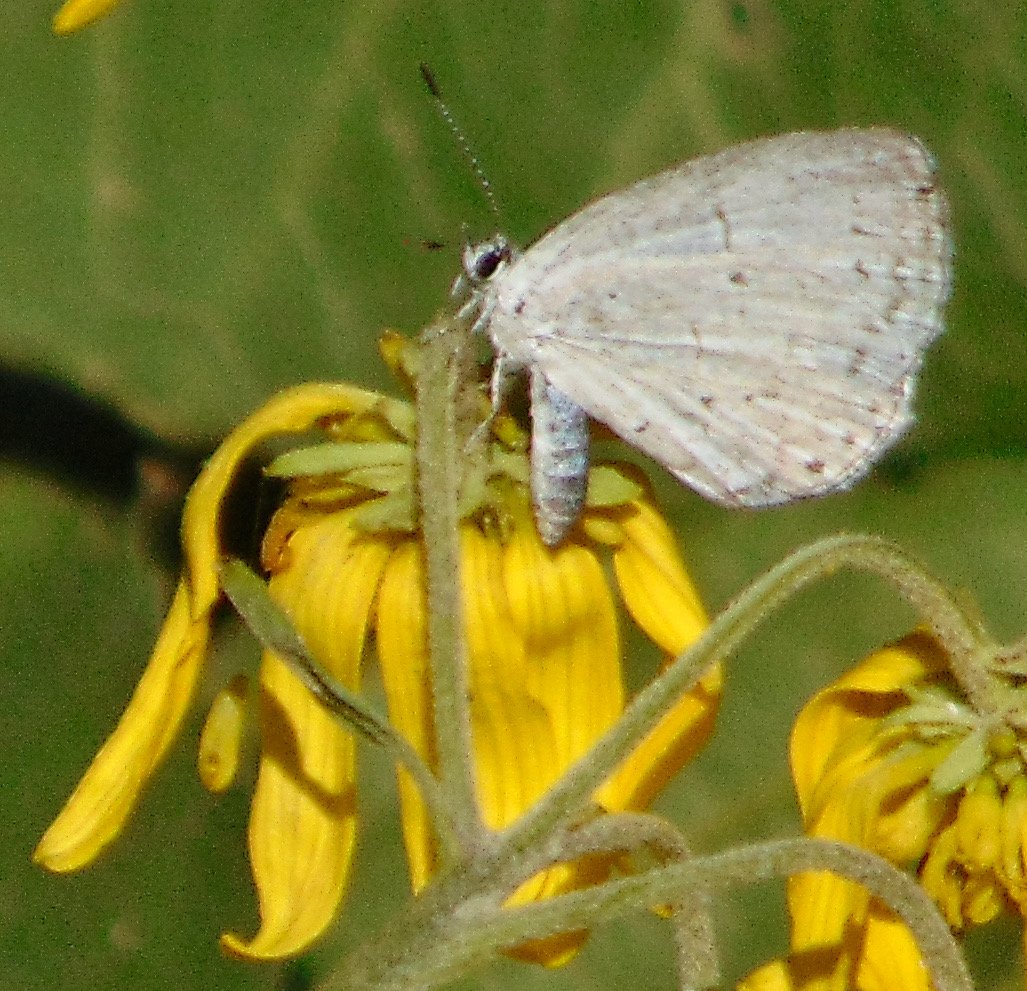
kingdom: Animalia
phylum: Arthropoda
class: Insecta
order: Lepidoptera
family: Lycaenidae
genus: Cyaniris
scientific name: Cyaniris neglecta
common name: Summer Azure
